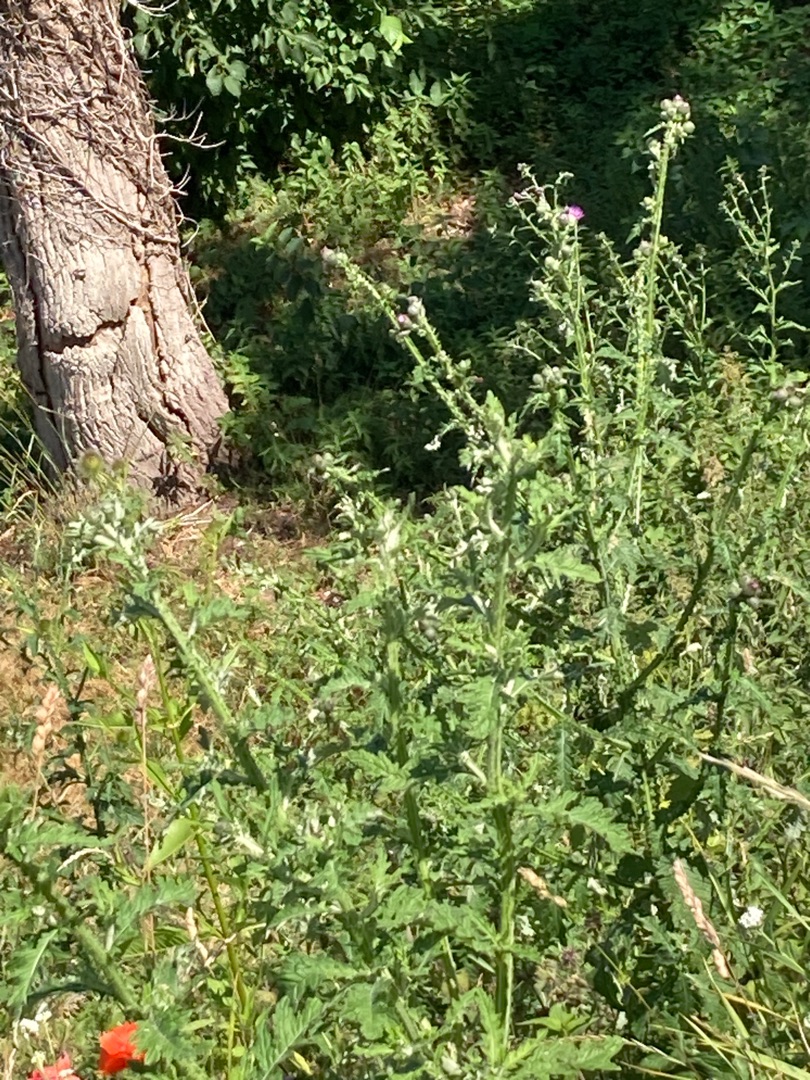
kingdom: Plantae
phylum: Tracheophyta
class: Magnoliopsida
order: Asterales
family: Asteraceae
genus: Carduus
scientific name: Carduus crispus
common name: Kruset tidsel
